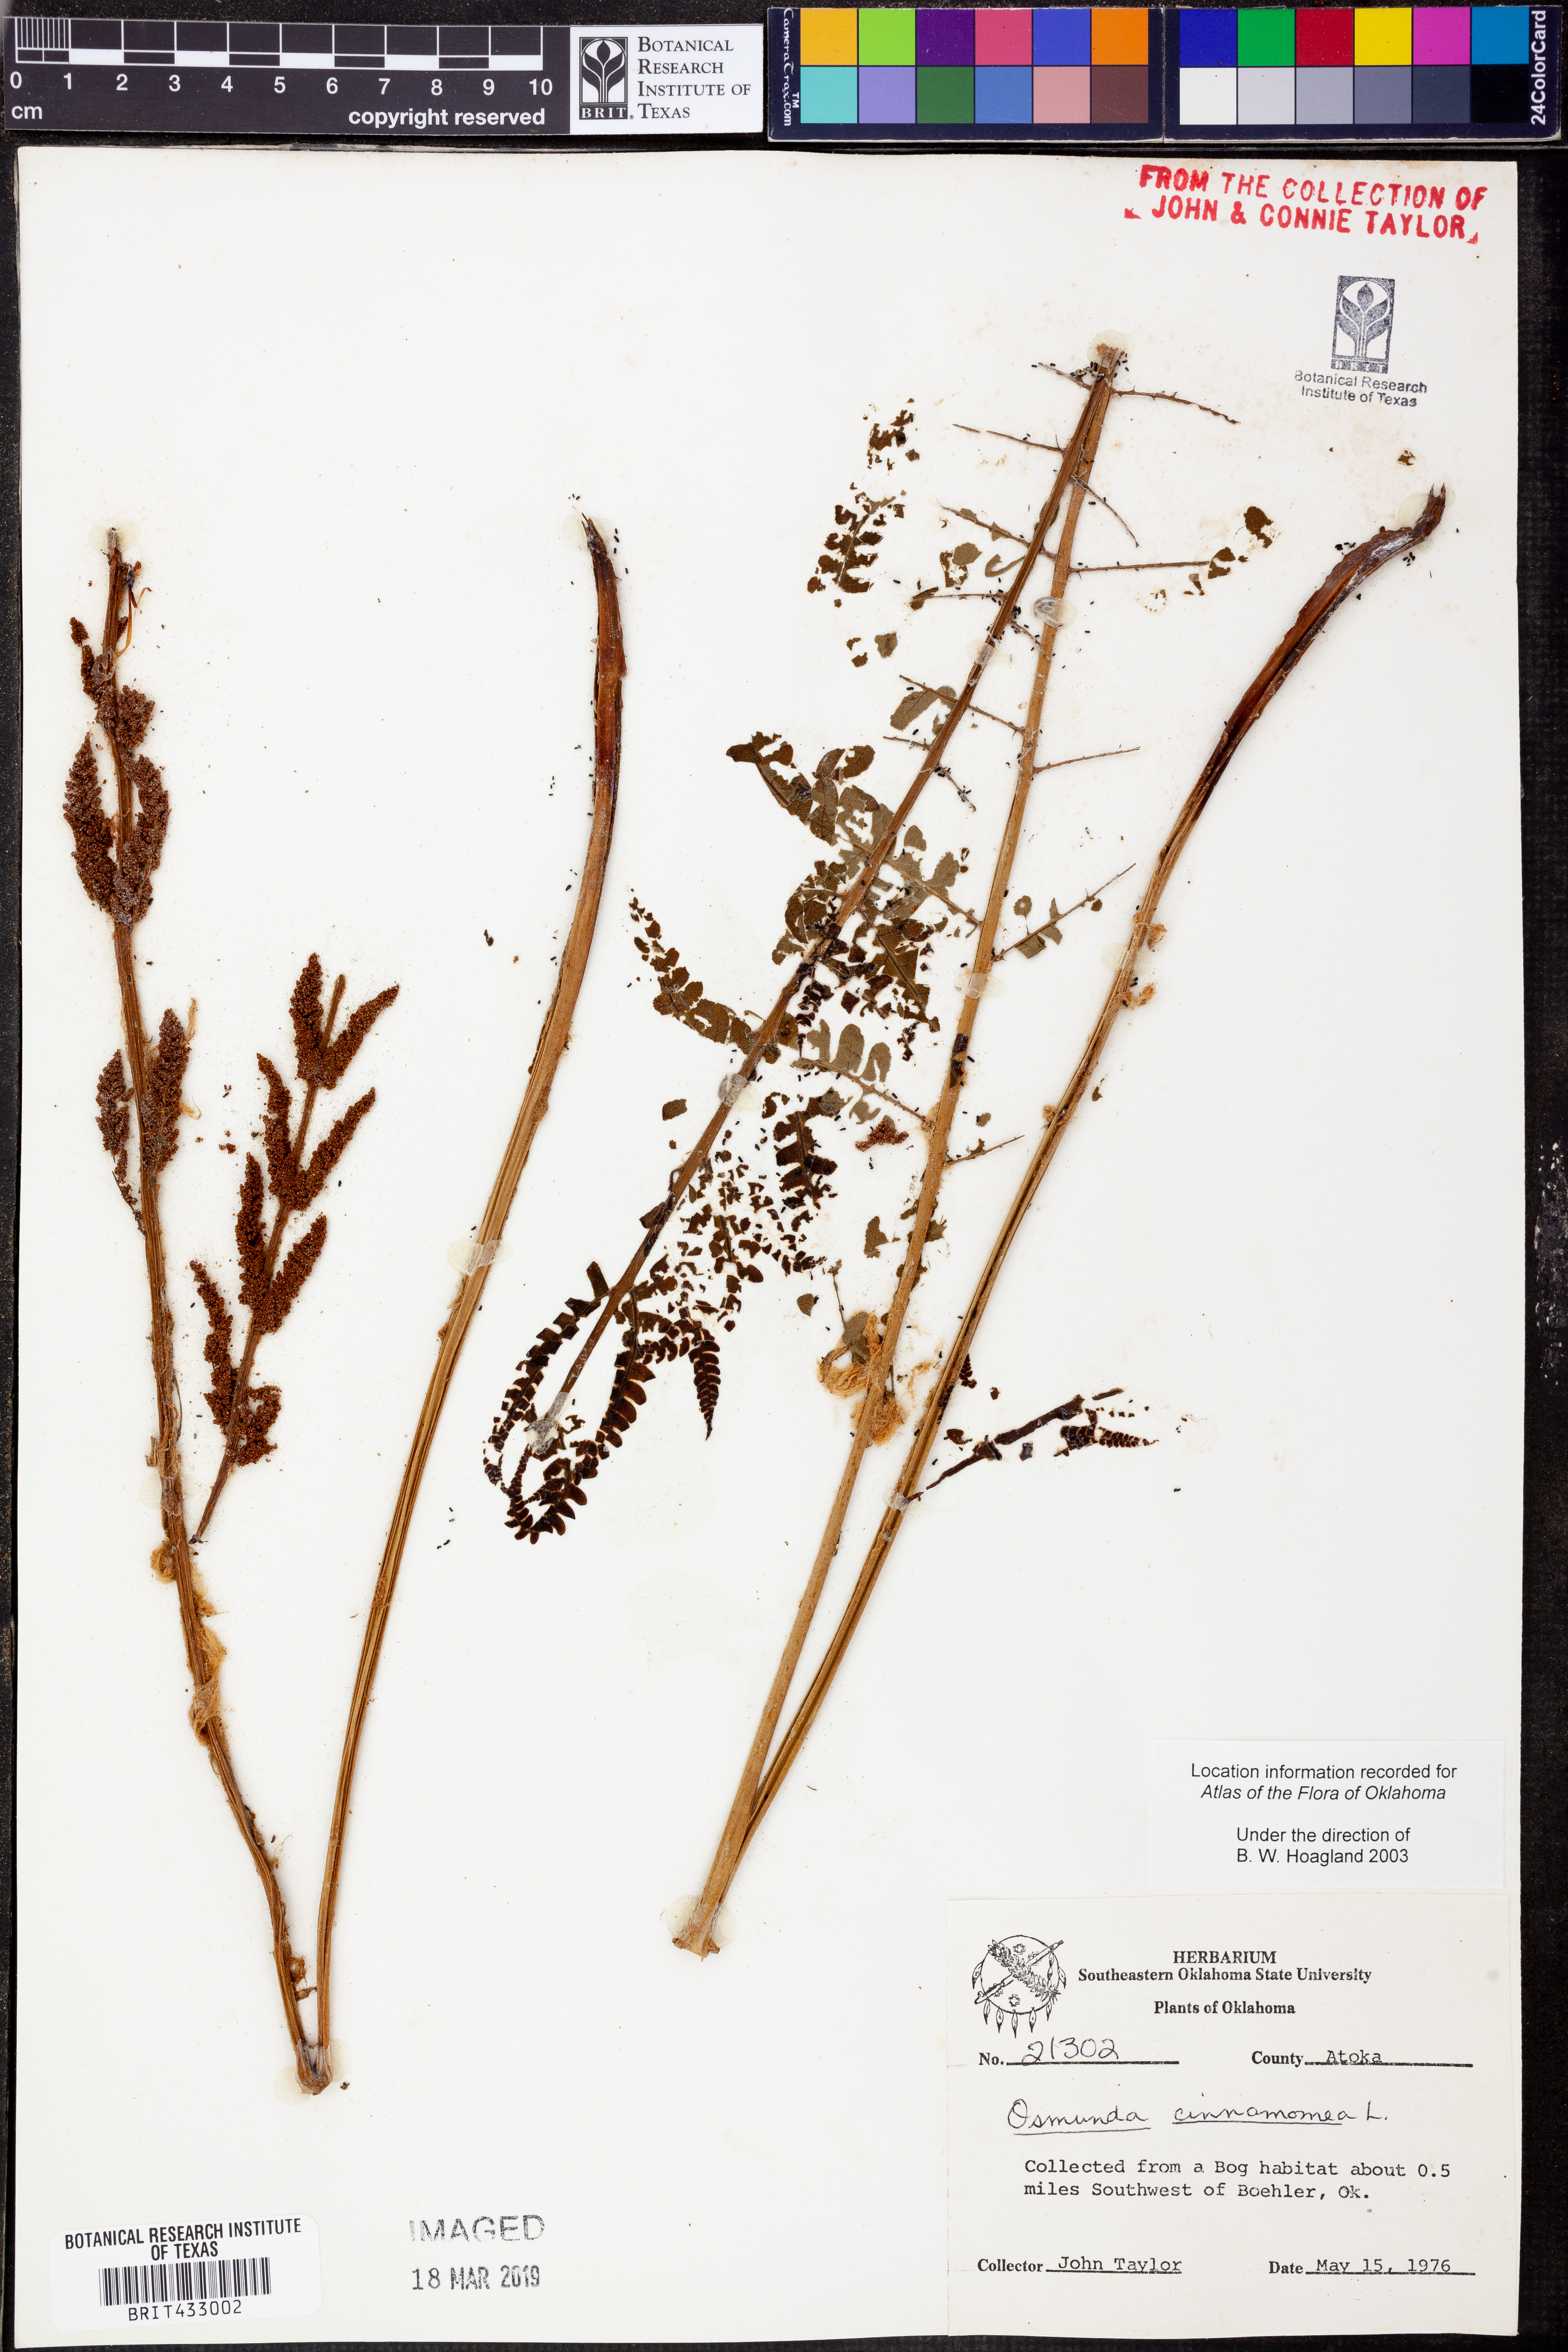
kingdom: Plantae
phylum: Tracheophyta
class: Polypodiopsida
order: Osmundales
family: Osmundaceae
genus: Osmundastrum
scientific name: Osmundastrum cinnamomeum
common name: Cinnamon fern
